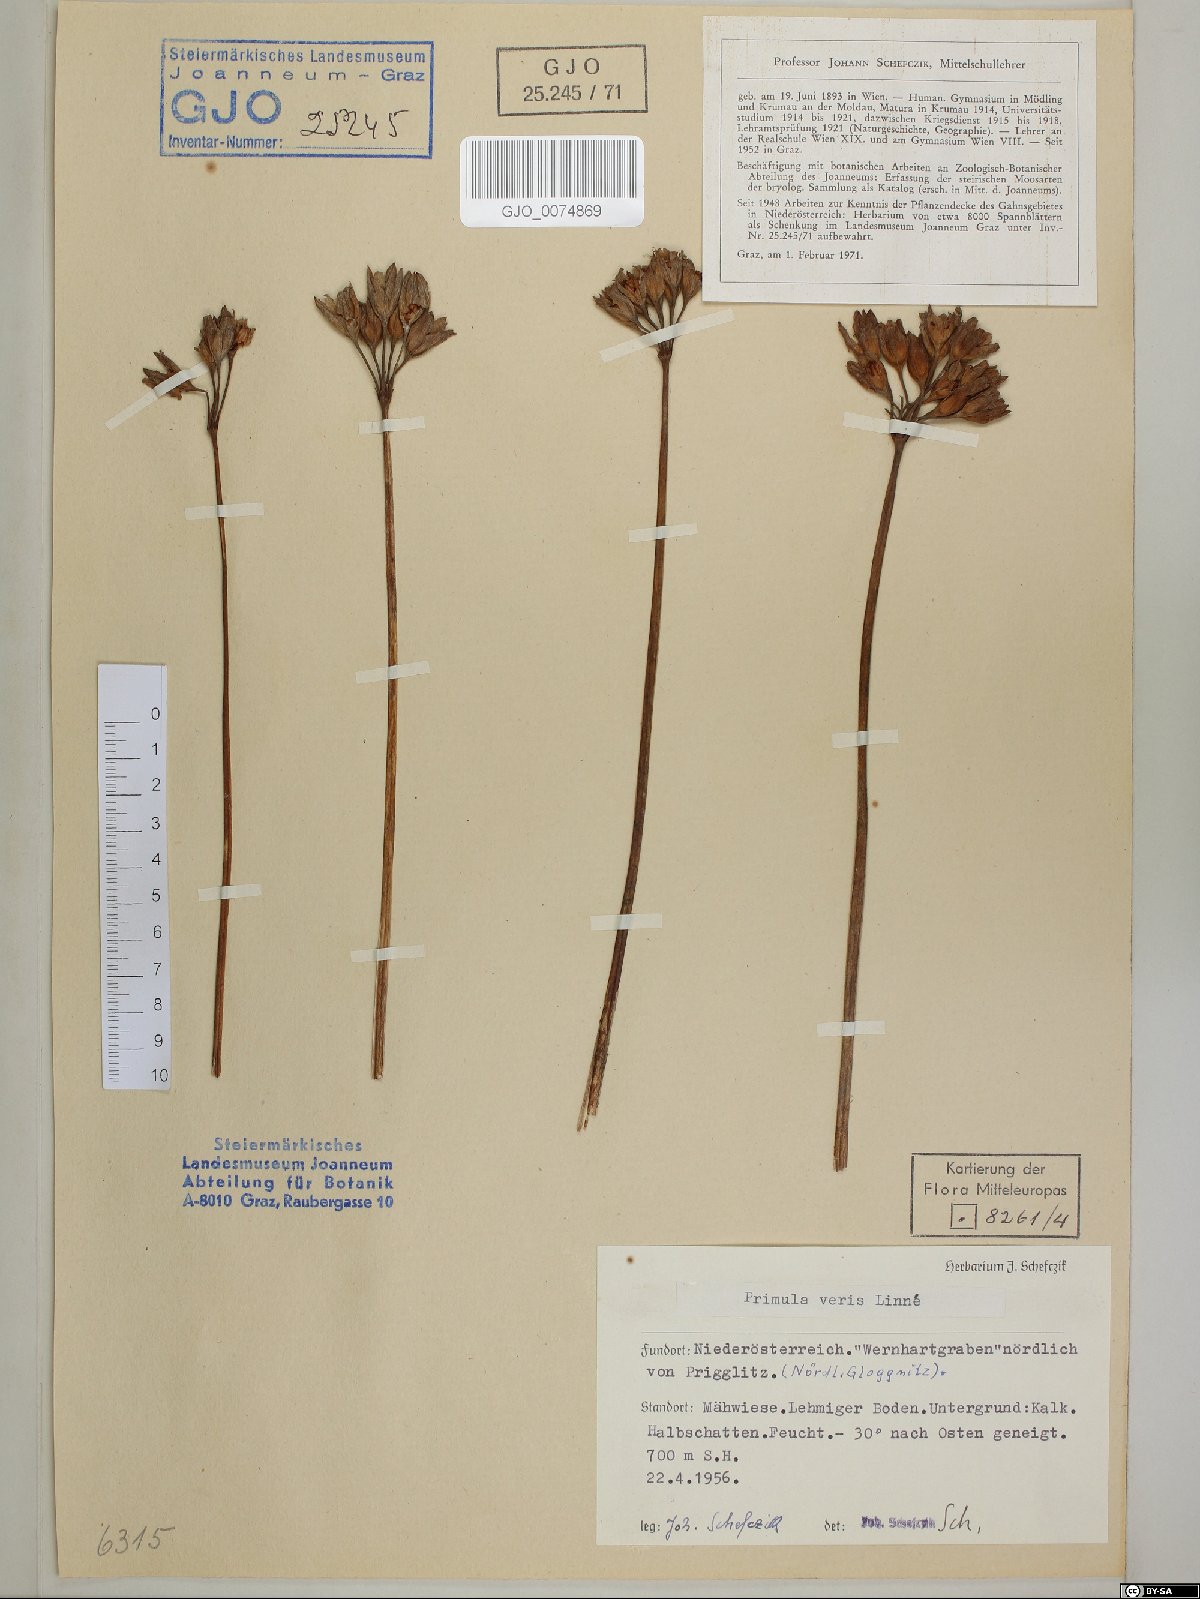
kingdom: Plantae
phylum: Tracheophyta
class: Magnoliopsida
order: Ericales
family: Primulaceae
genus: Primula
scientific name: Primula veris
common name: Cowslip
